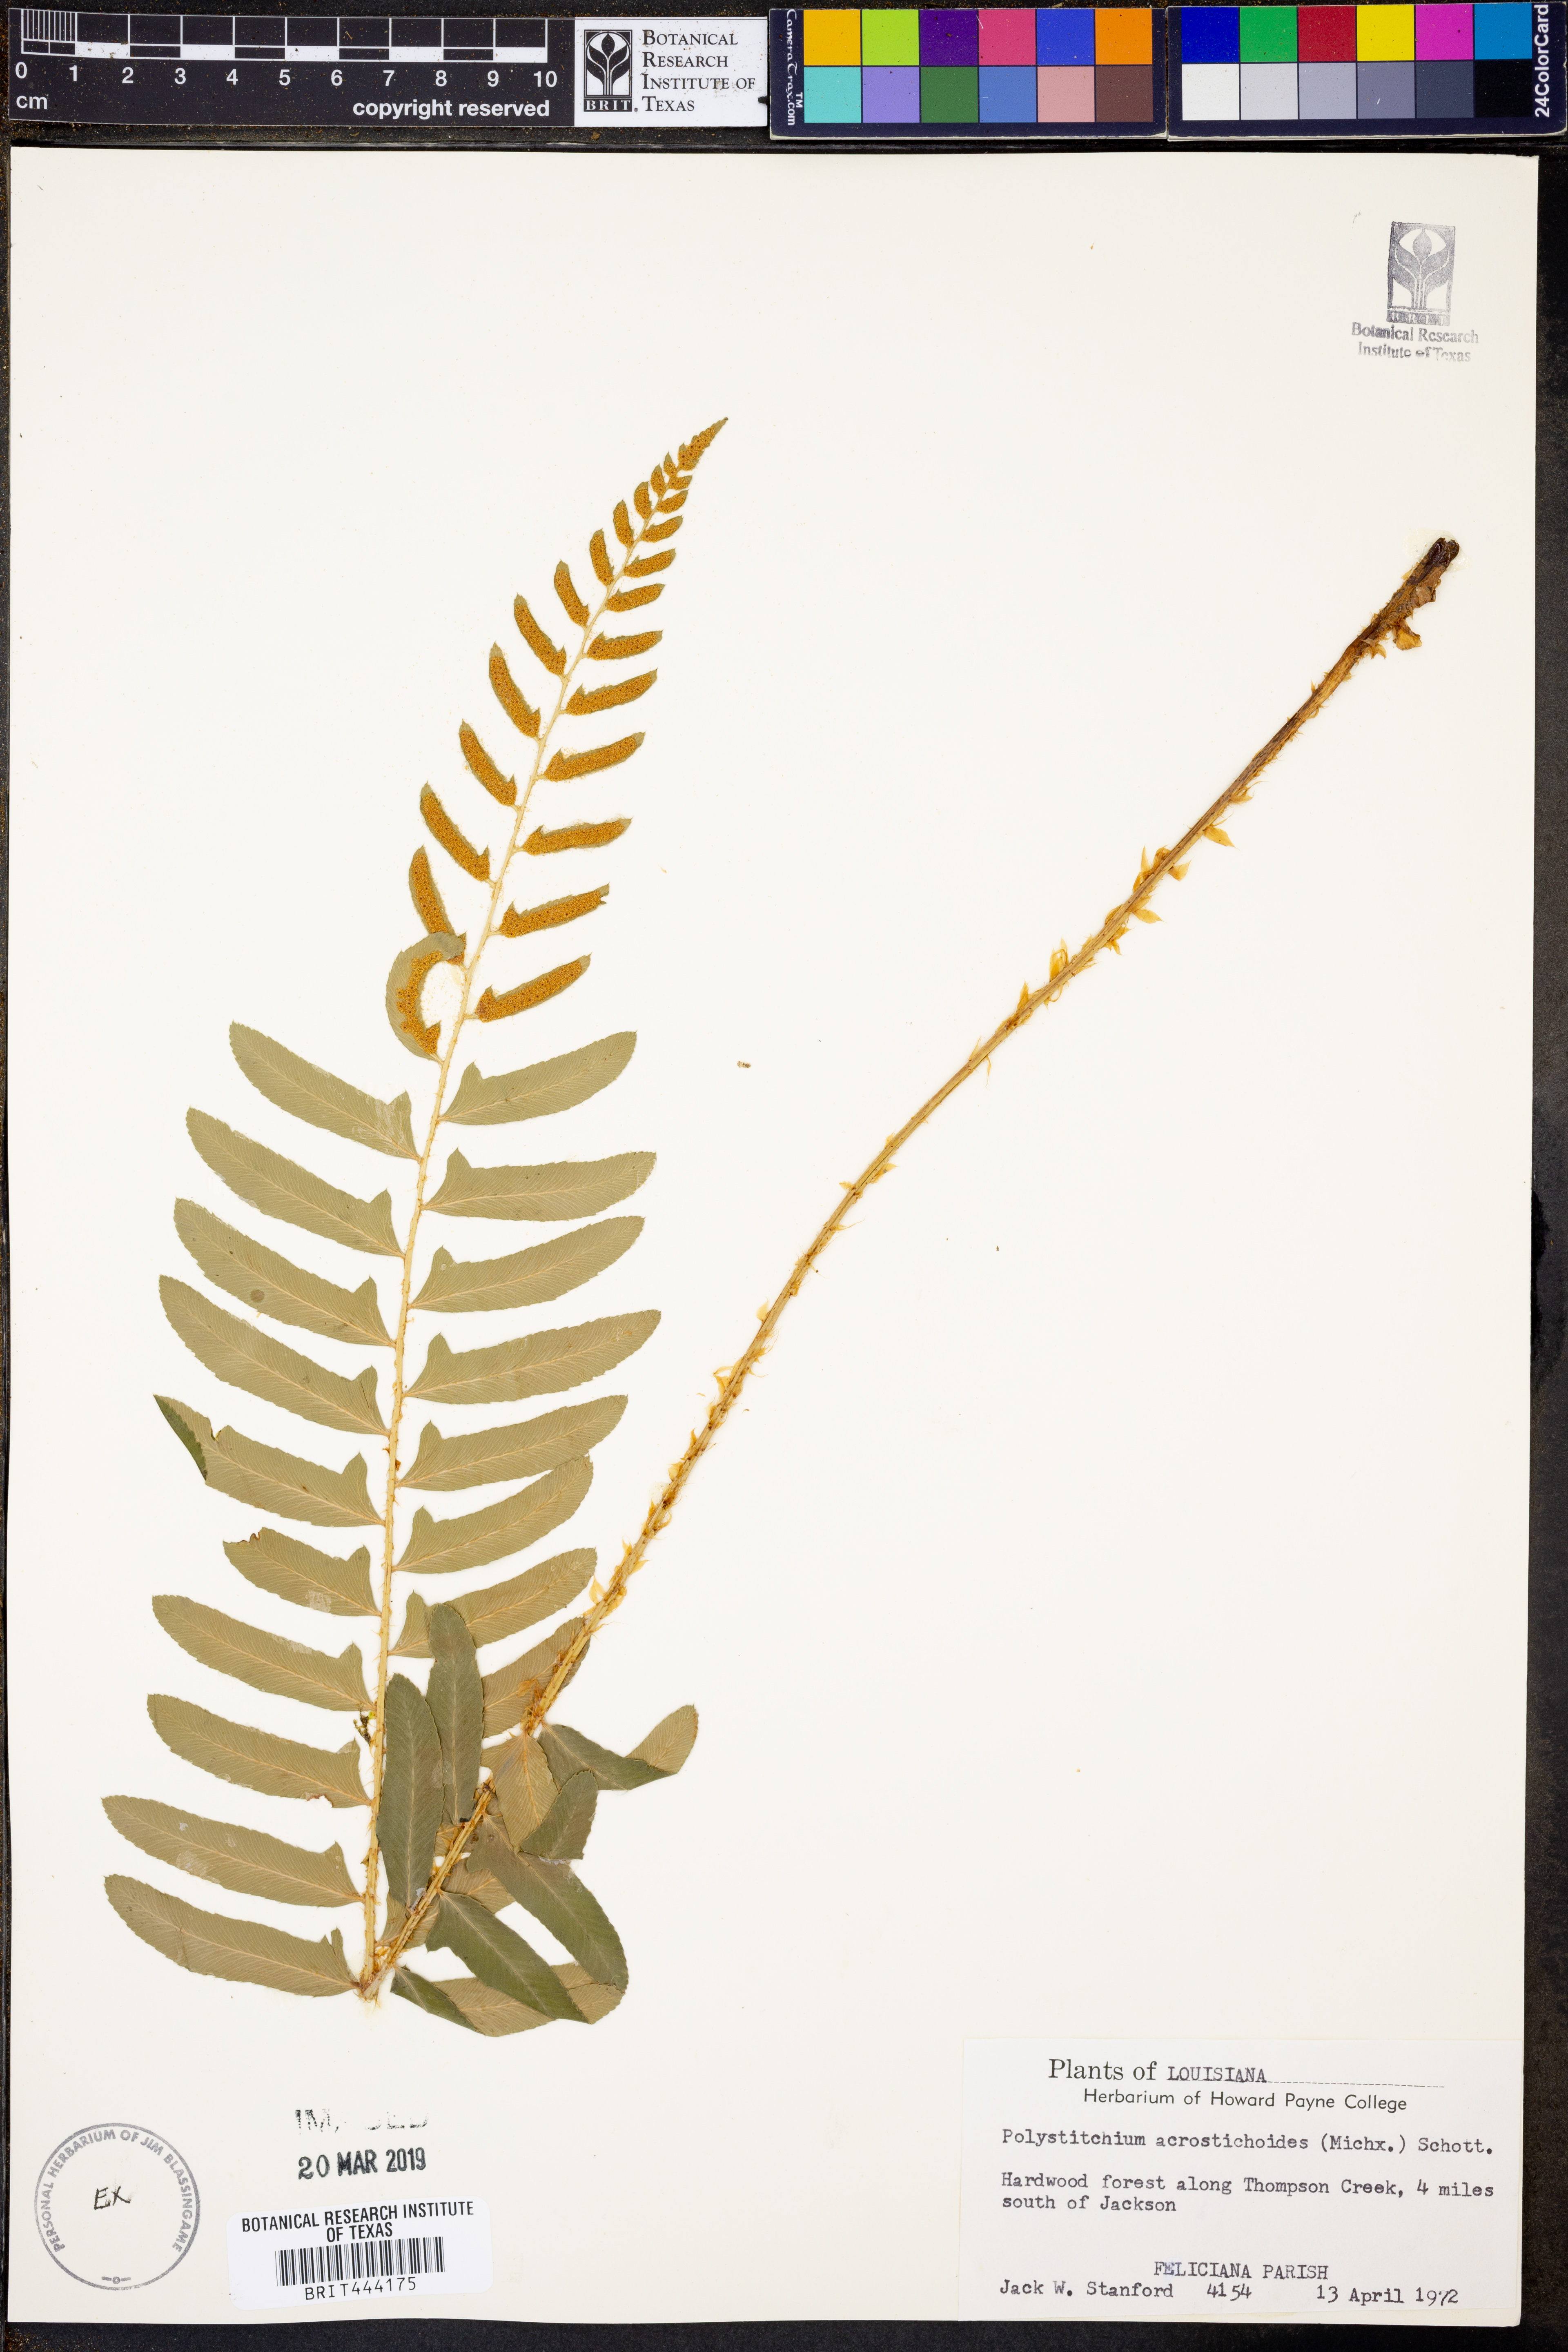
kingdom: Plantae
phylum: Tracheophyta
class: Polypodiopsida
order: Polypodiales
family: Dryopteridaceae
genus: Polystichum
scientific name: Polystichum acrostichoides
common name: Christmas fern
